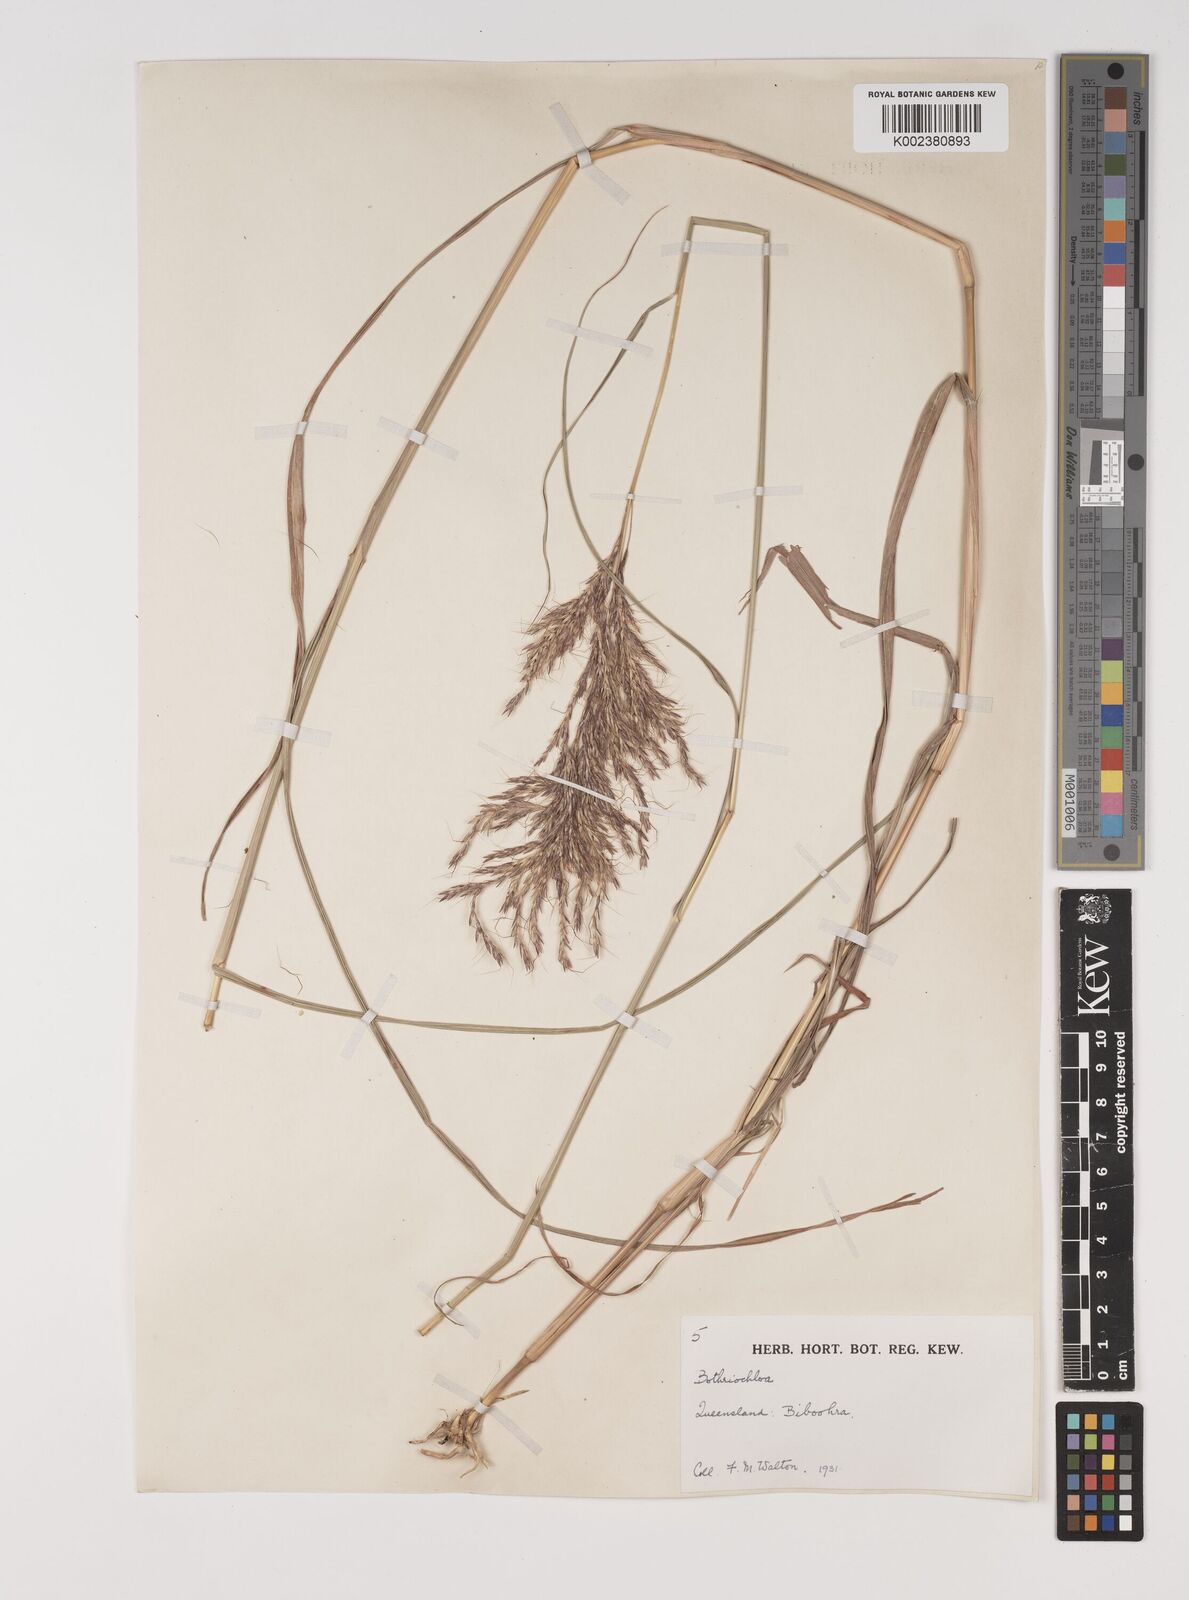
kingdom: Plantae
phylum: Tracheophyta
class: Liliopsida
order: Poales
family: Poaceae
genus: Bothriochloa
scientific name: Bothriochloa bladhii
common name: Caucasian bluestem
